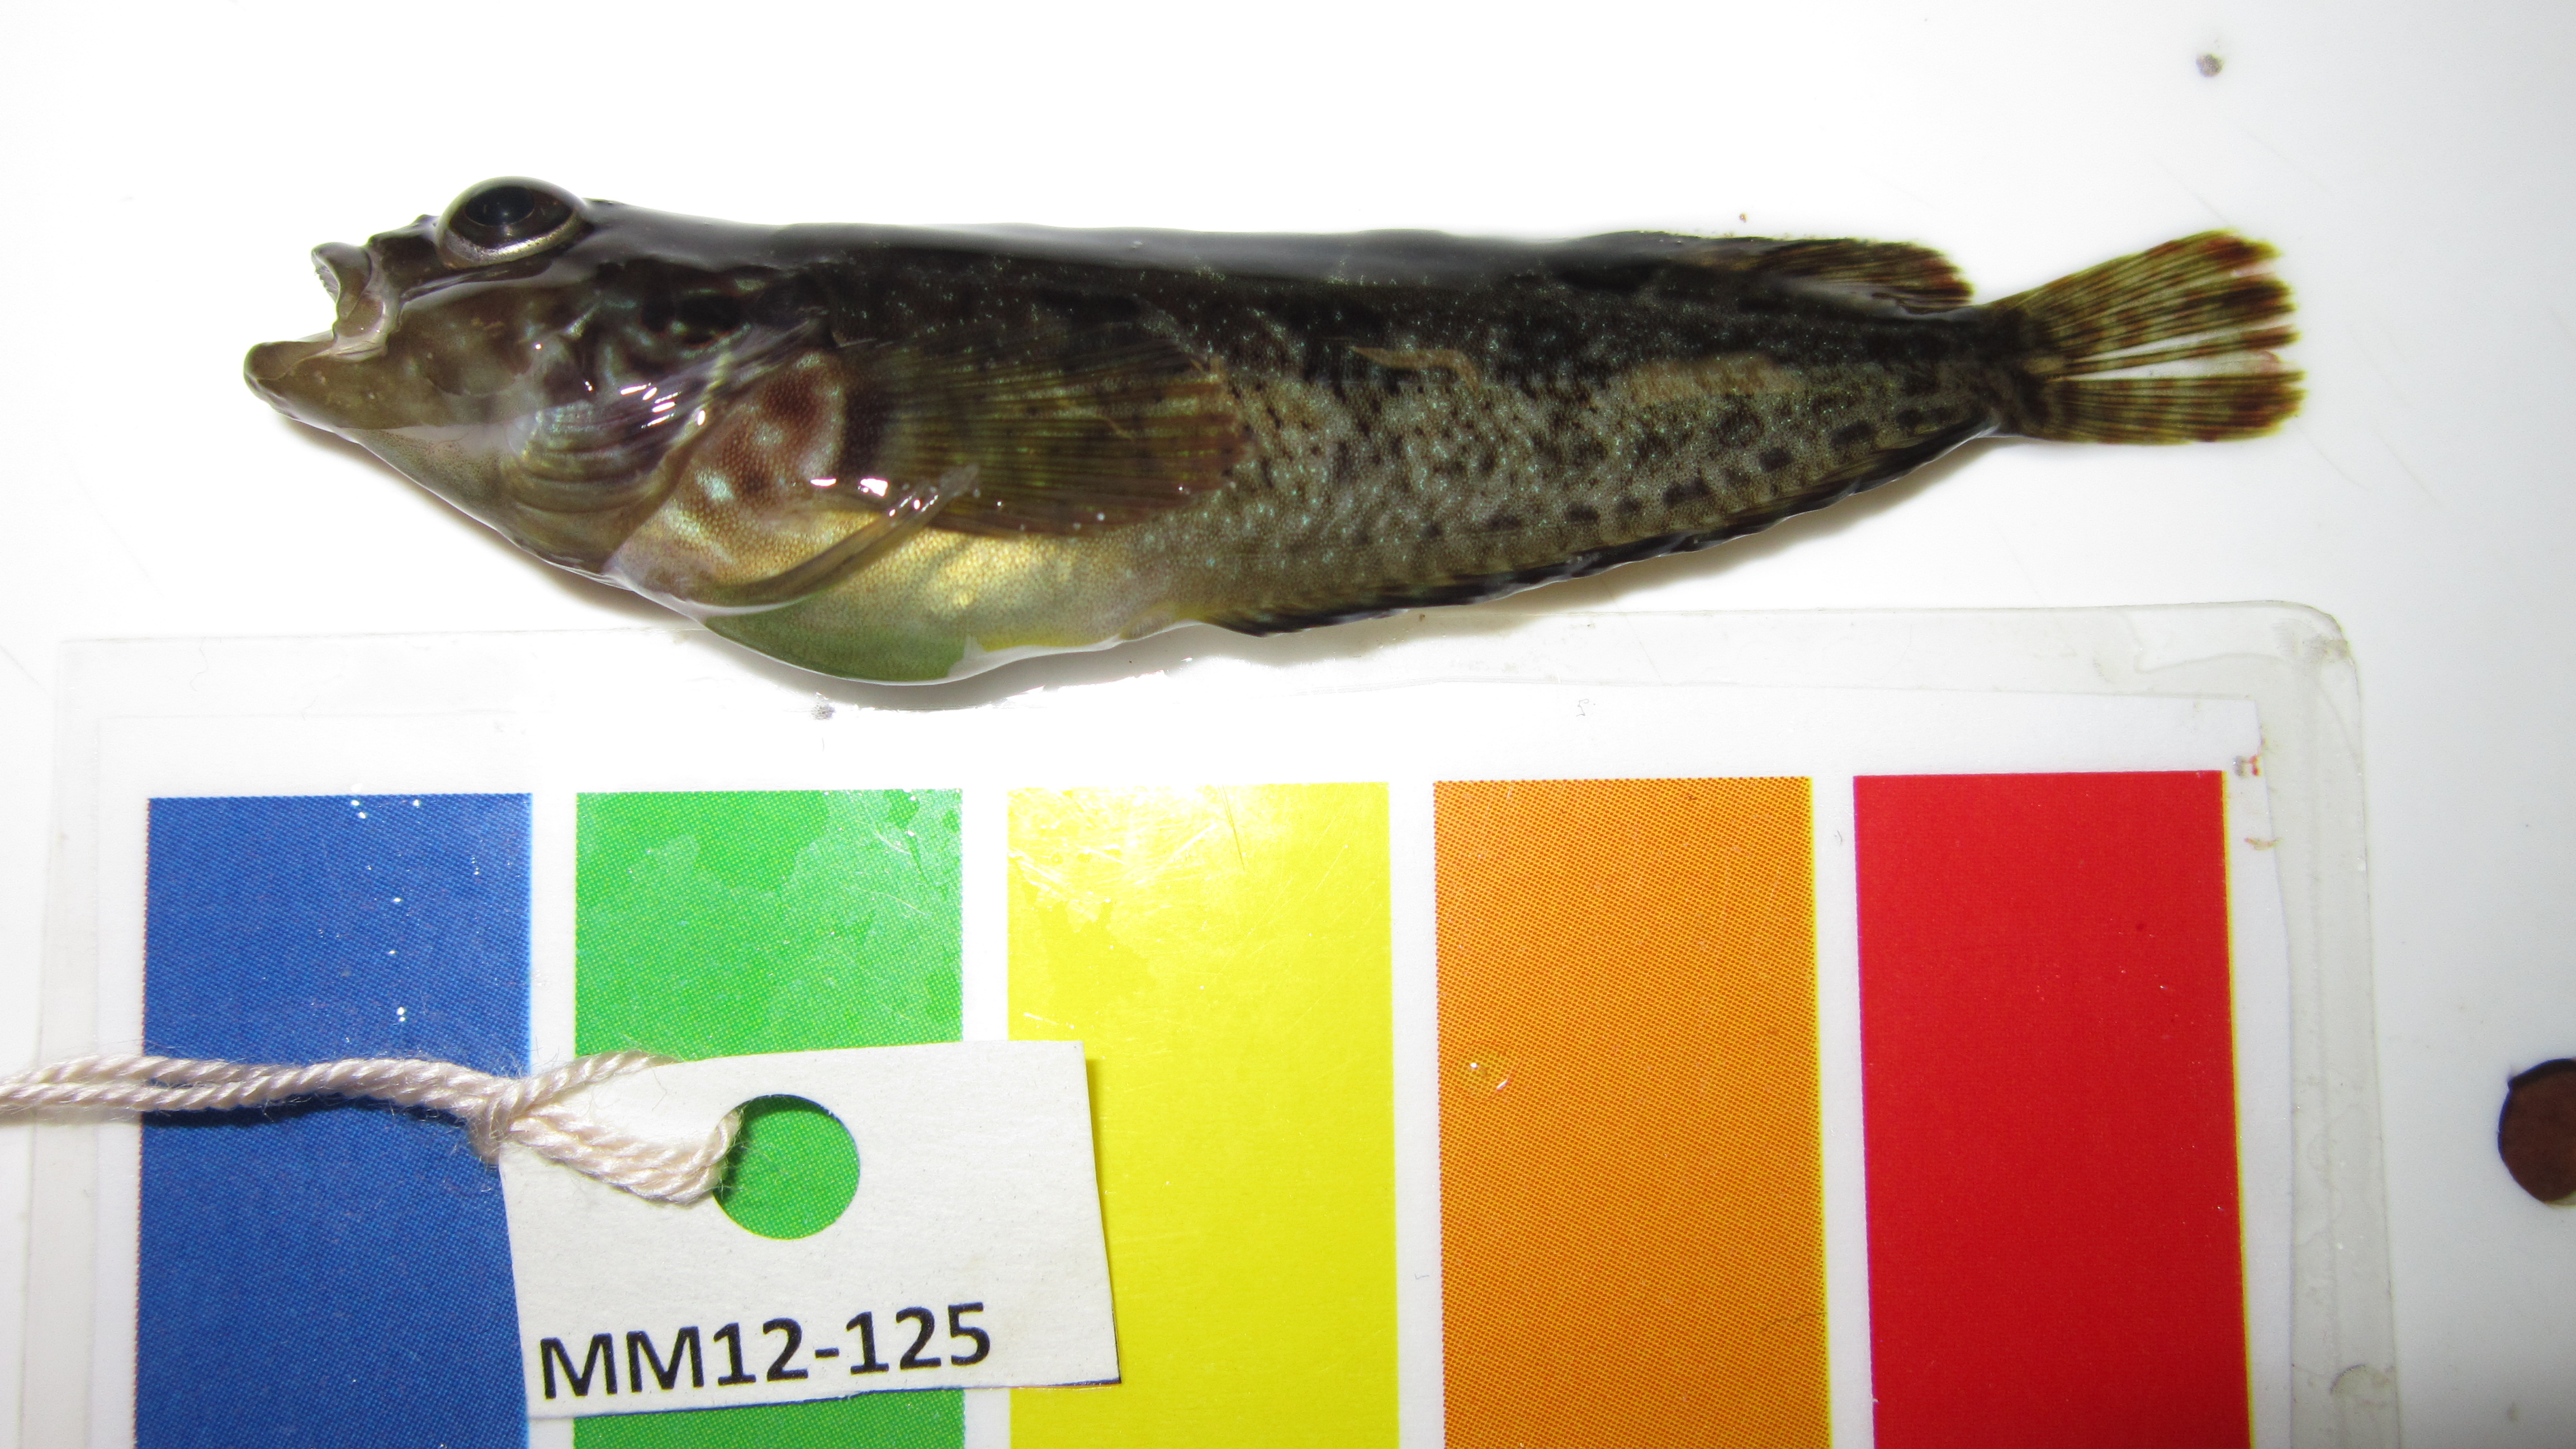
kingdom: Animalia
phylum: Chordata
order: Perciformes
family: Clinidae
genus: Clinus
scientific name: Clinus superciliosus
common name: Super klipfish
